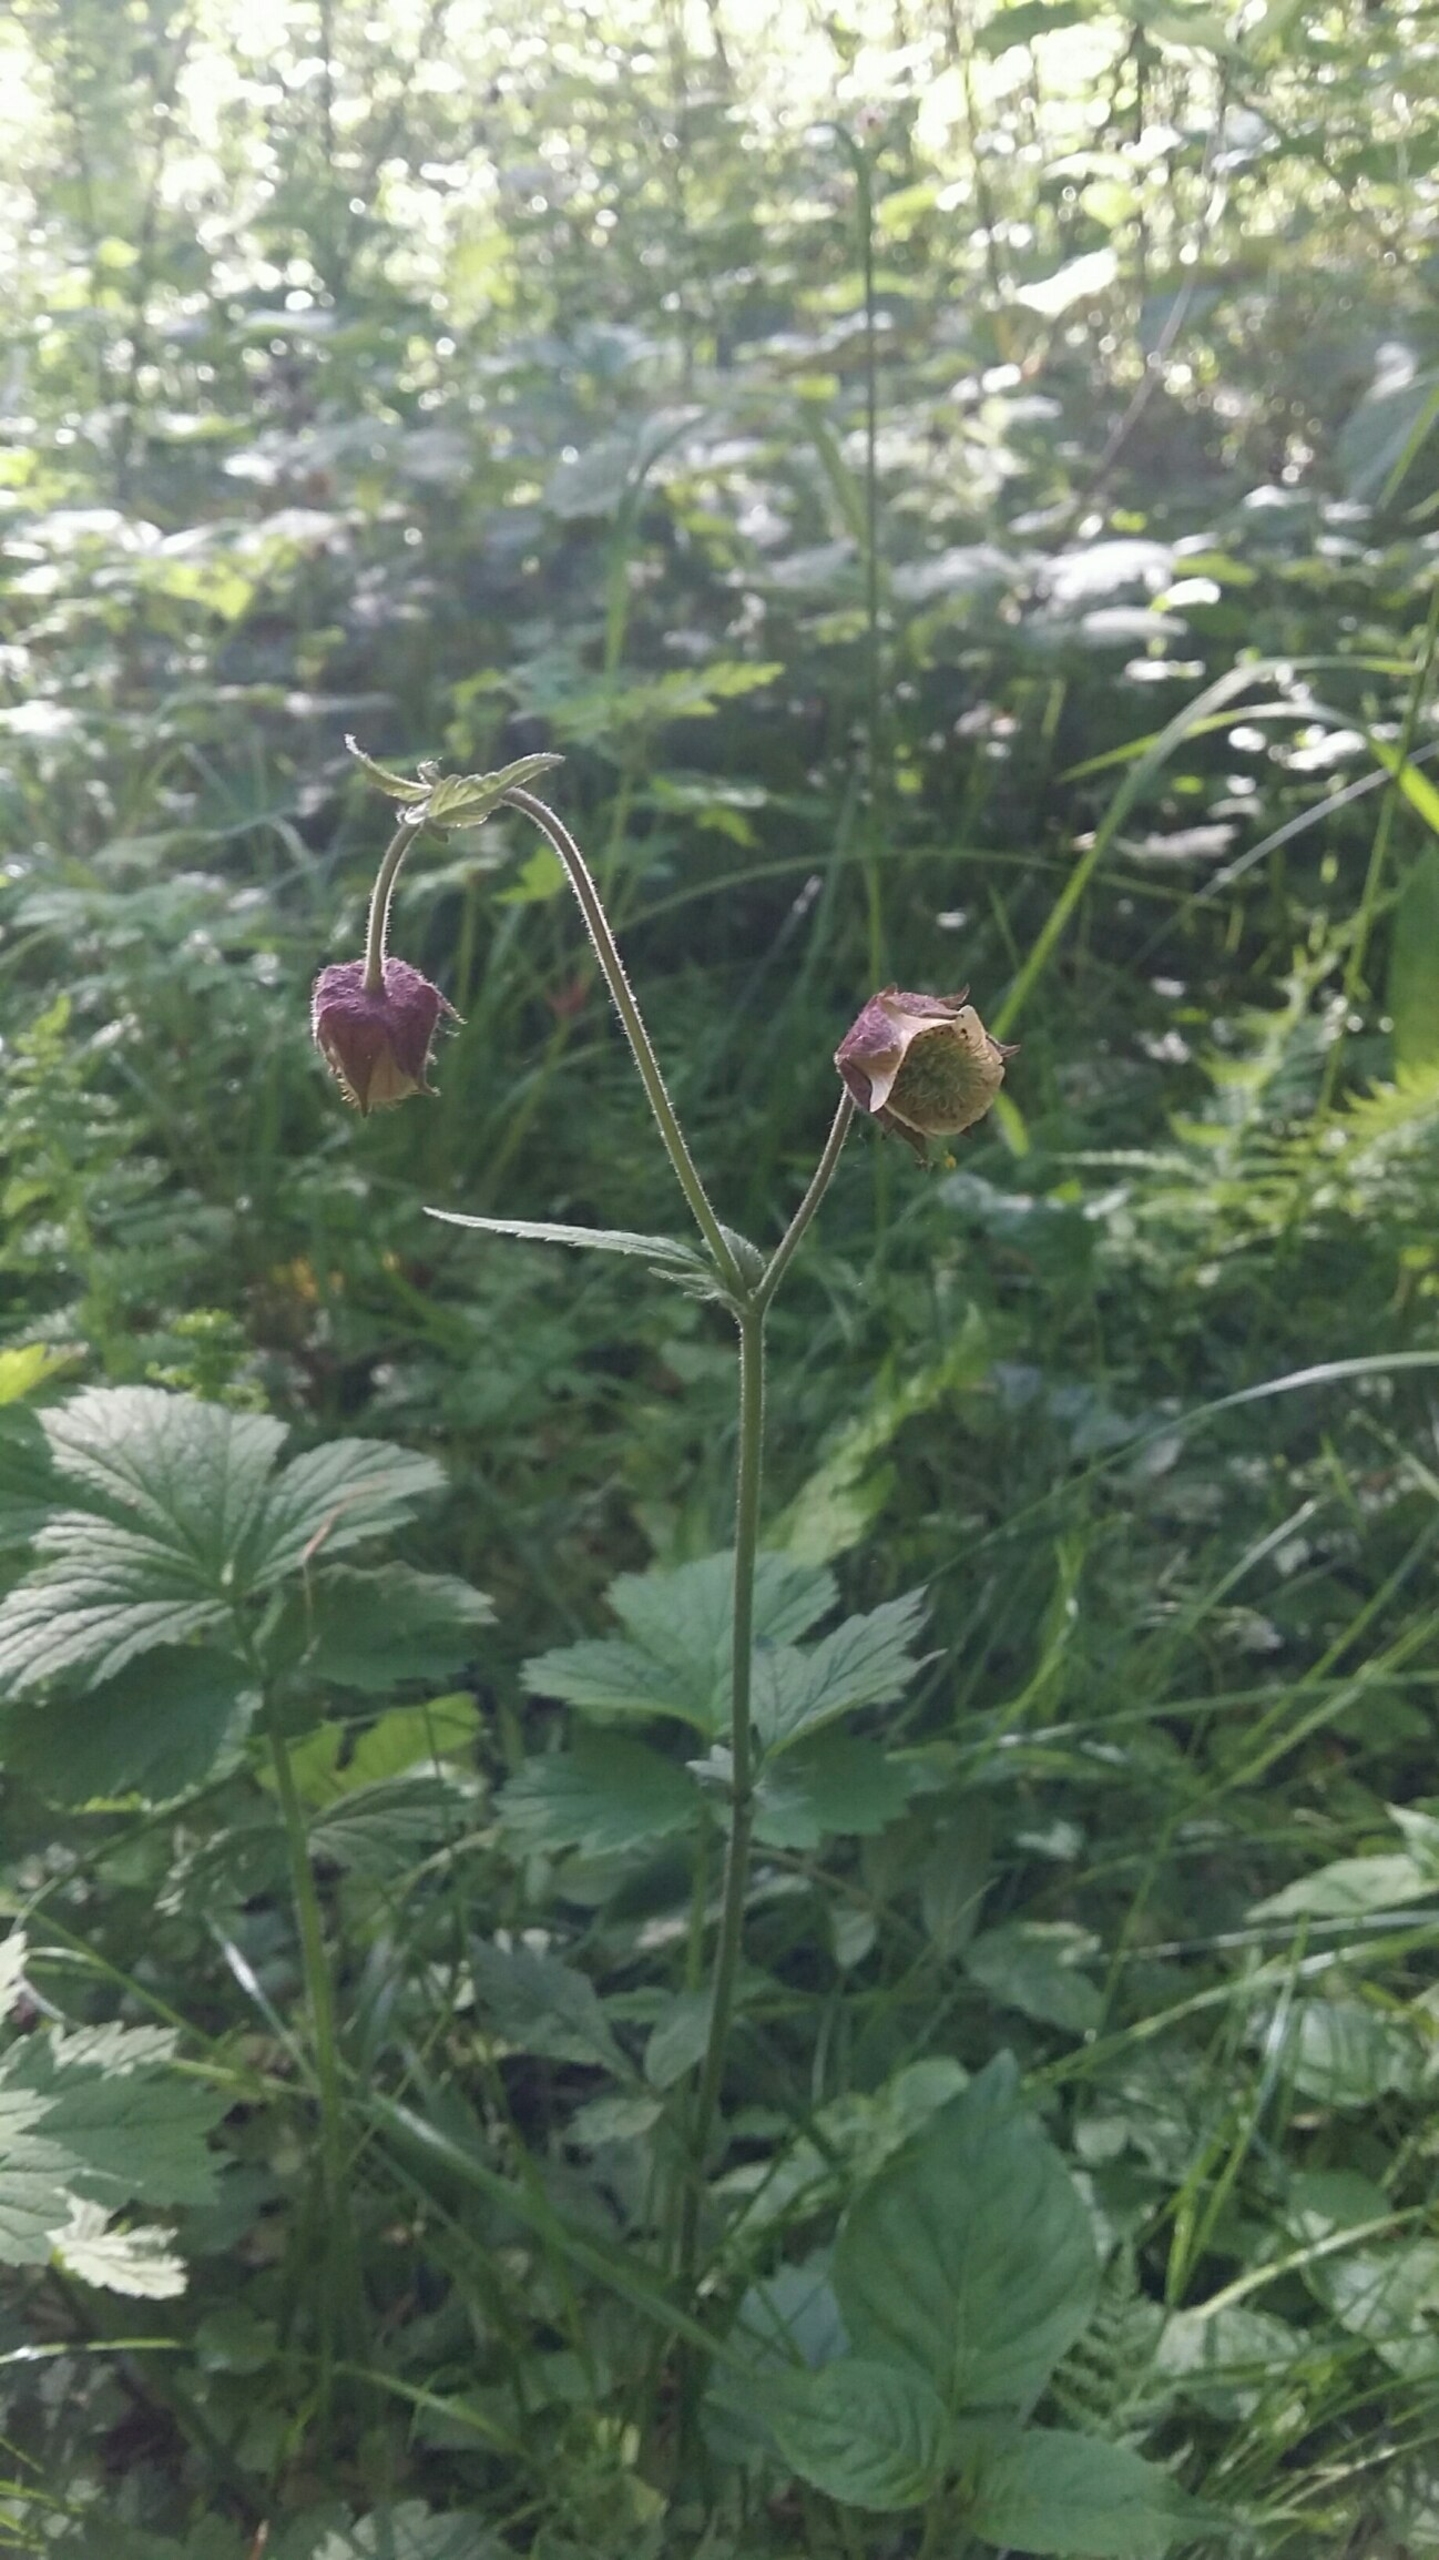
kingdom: Plantae
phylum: Tracheophyta
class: Magnoliopsida
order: Rosales
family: Rosaceae
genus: Geum
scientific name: Geum rivale
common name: Eng-nellikerod
